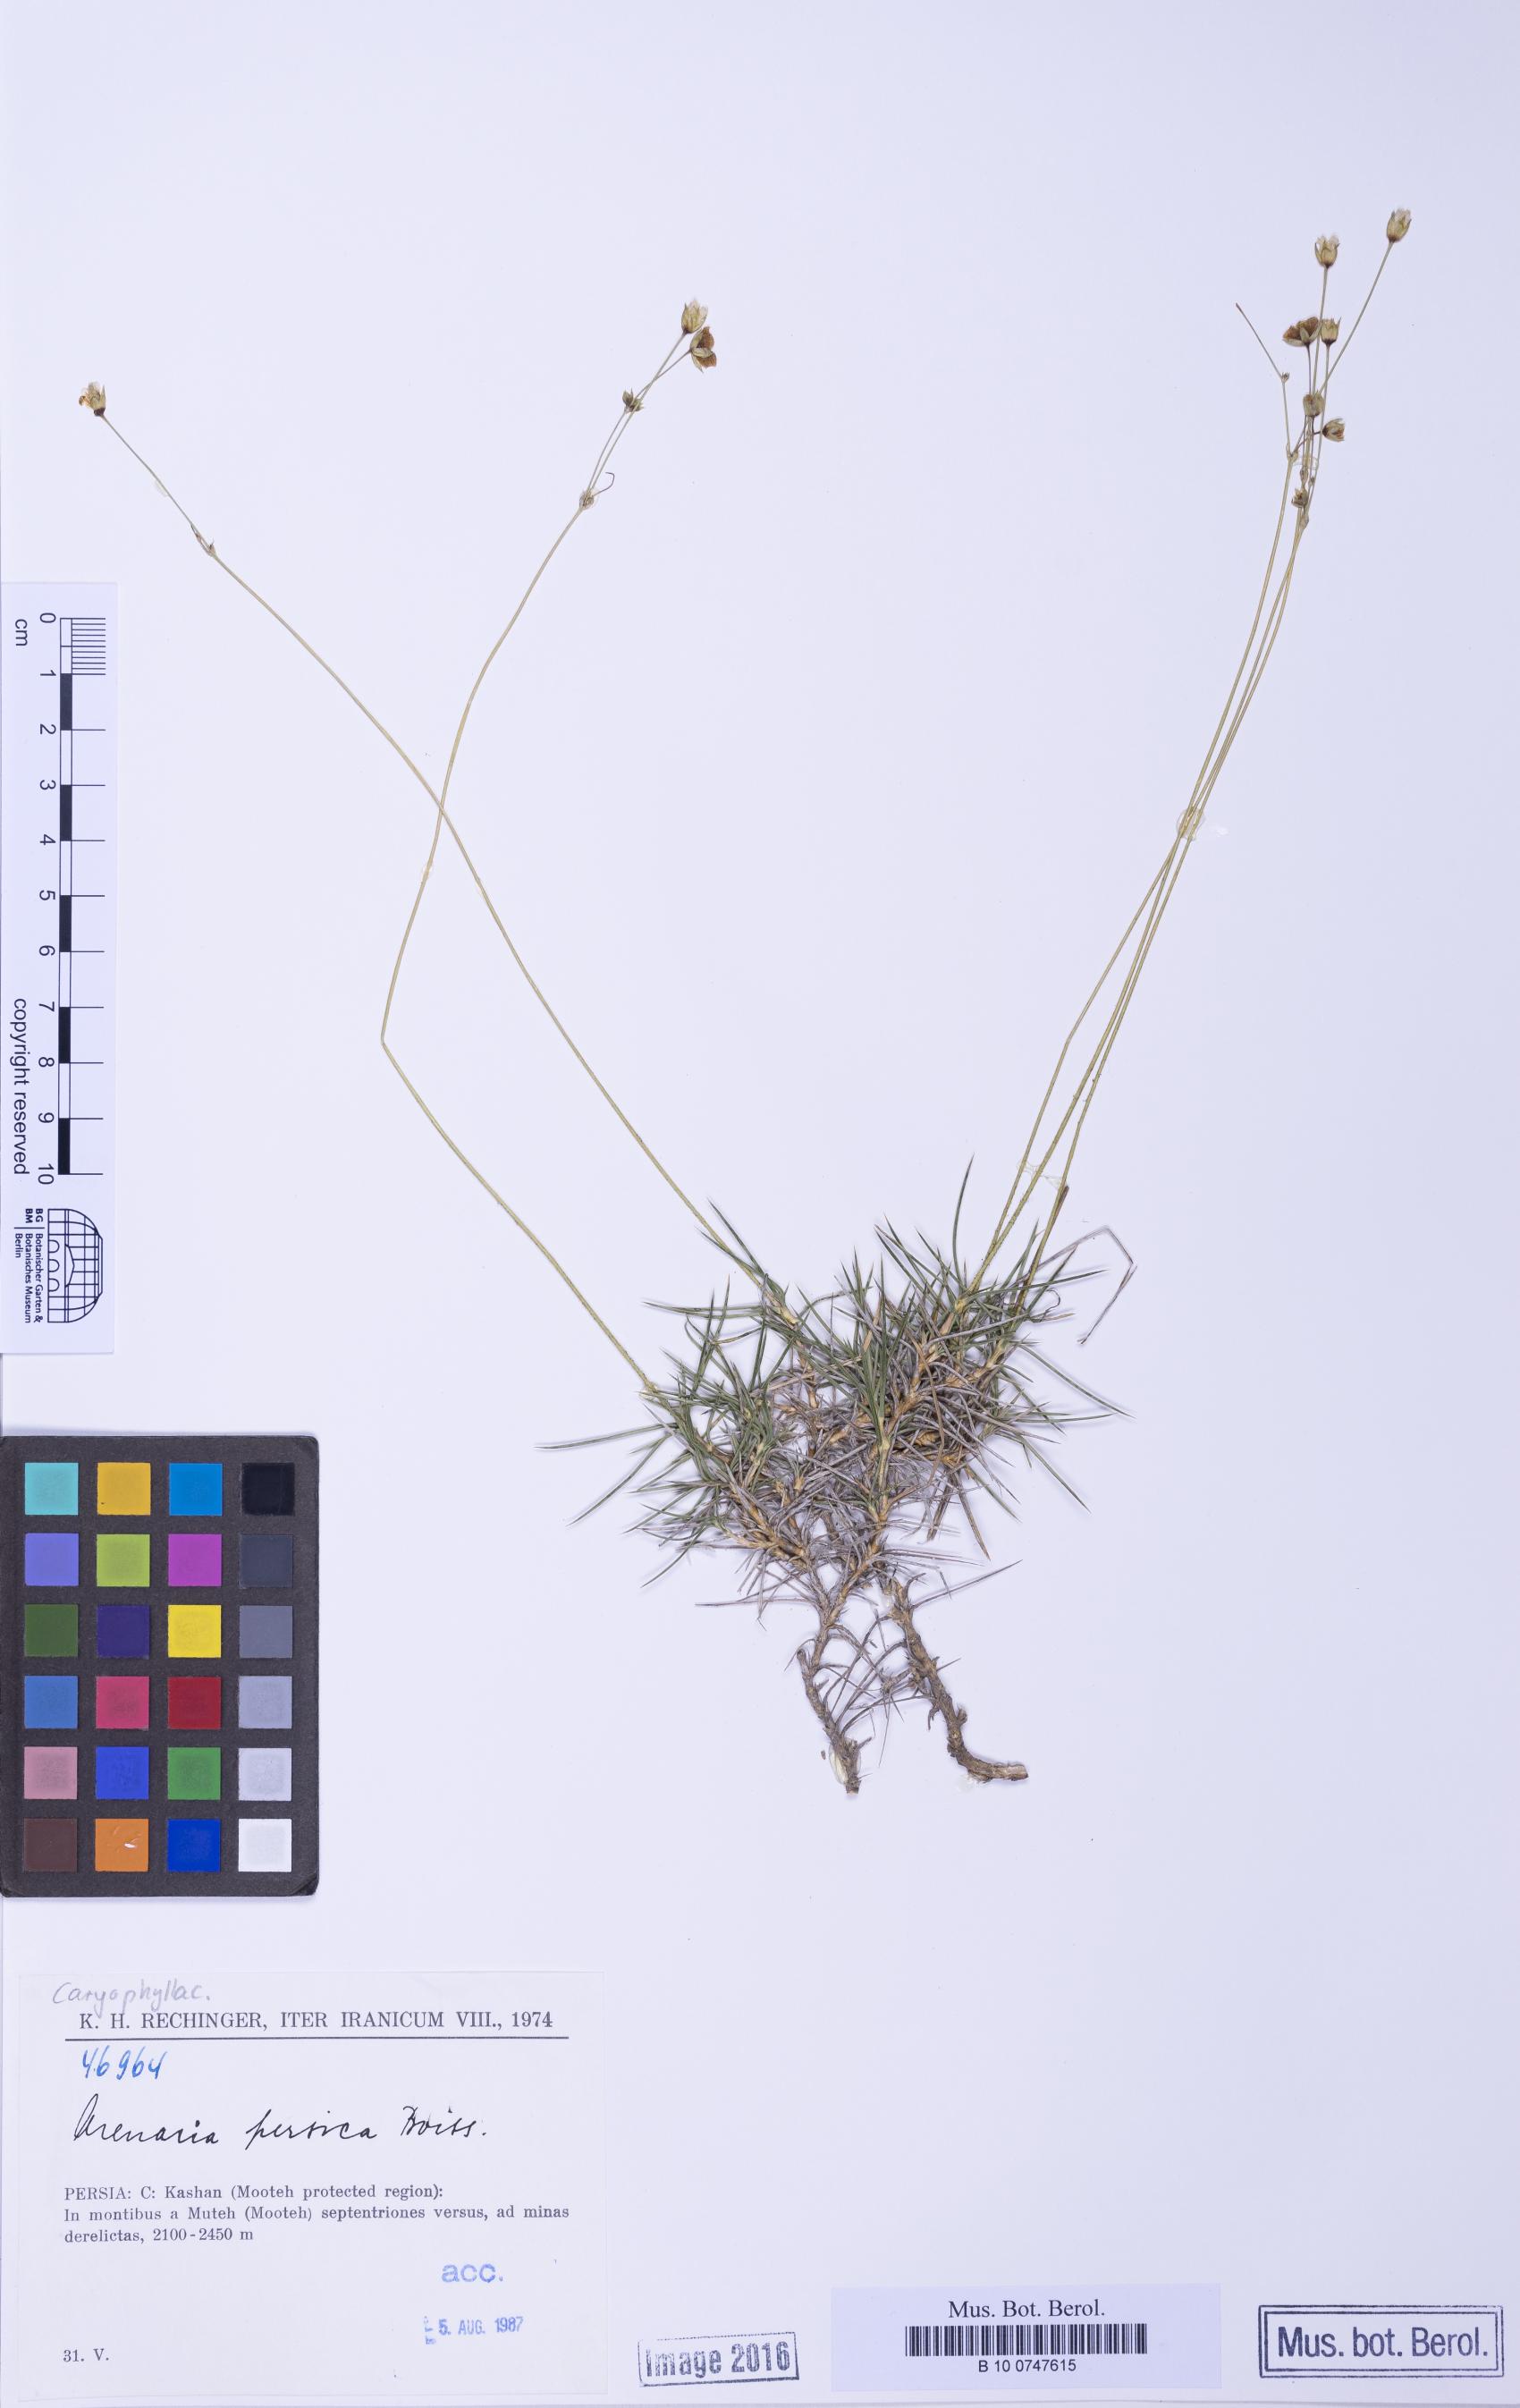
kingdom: Plantae
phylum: Tracheophyta
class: Magnoliopsida
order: Caryophyllales
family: Caryophyllaceae
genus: Eremogone
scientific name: Eremogone persica
